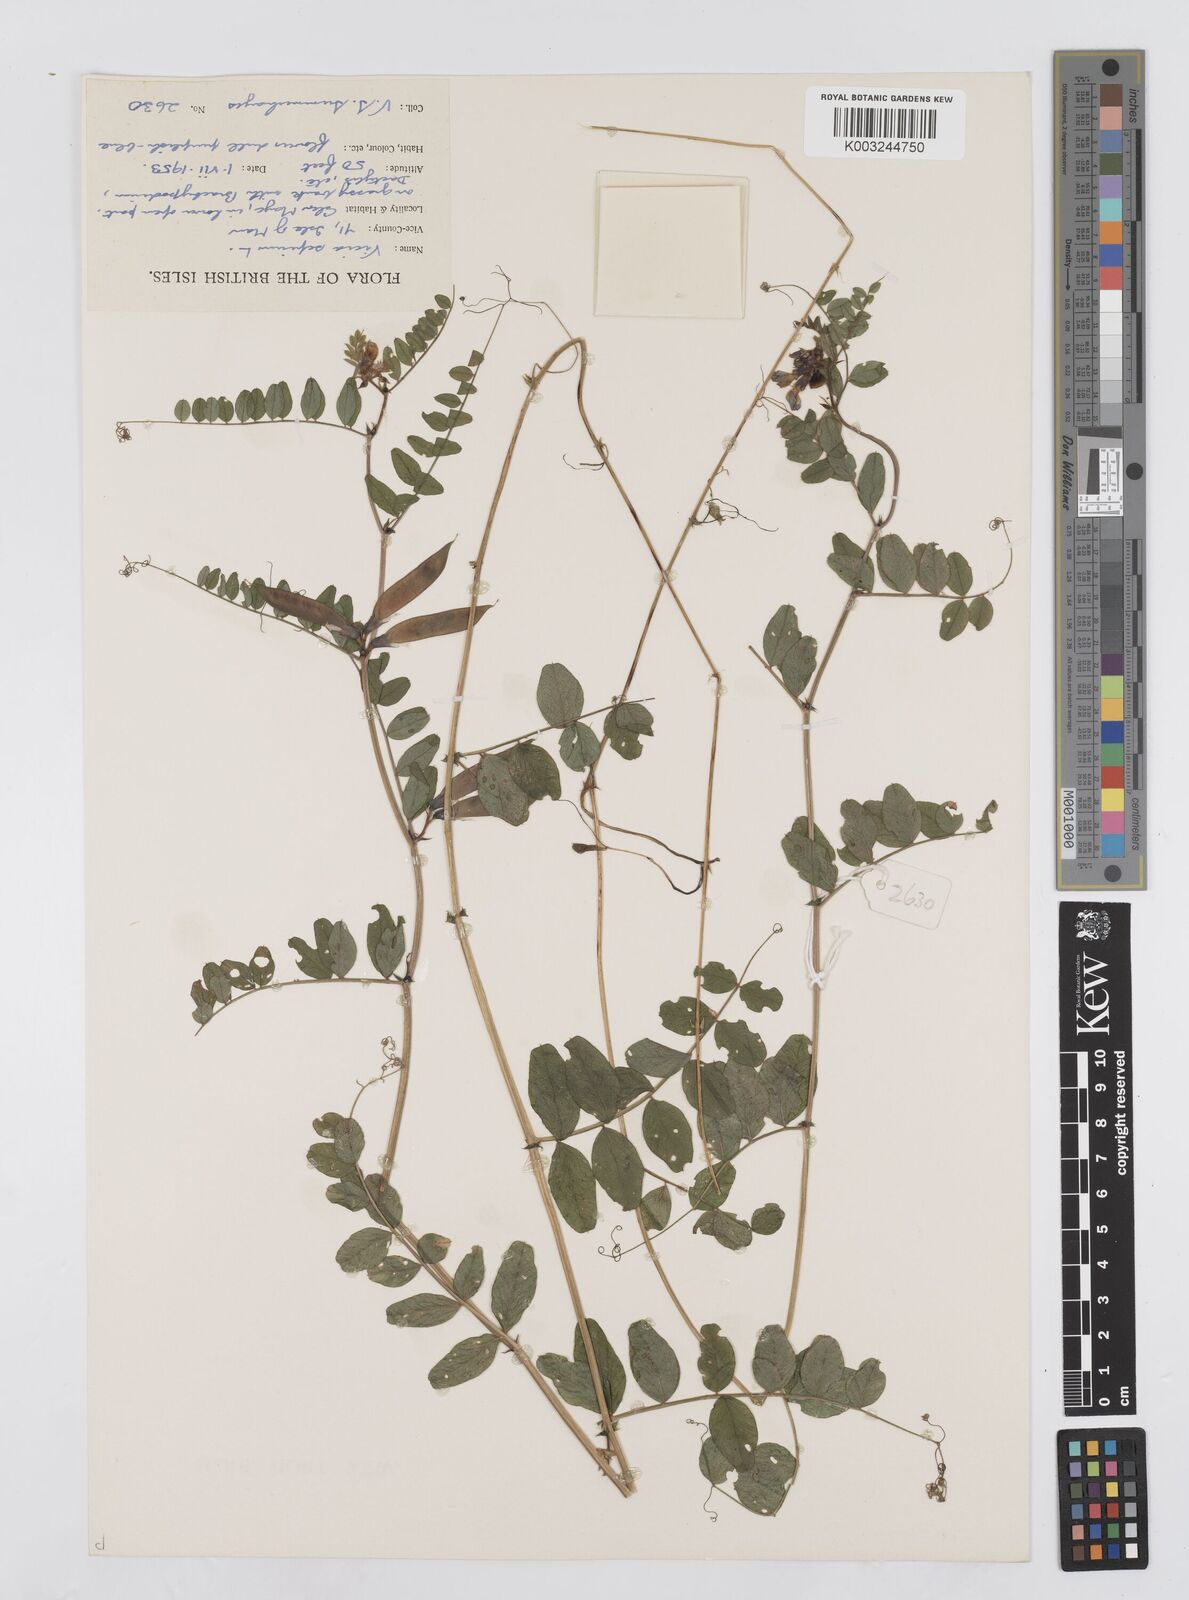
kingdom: Plantae
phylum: Tracheophyta
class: Magnoliopsida
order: Fabales
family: Fabaceae
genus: Vicia
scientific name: Vicia sepium
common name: Bush vetch
